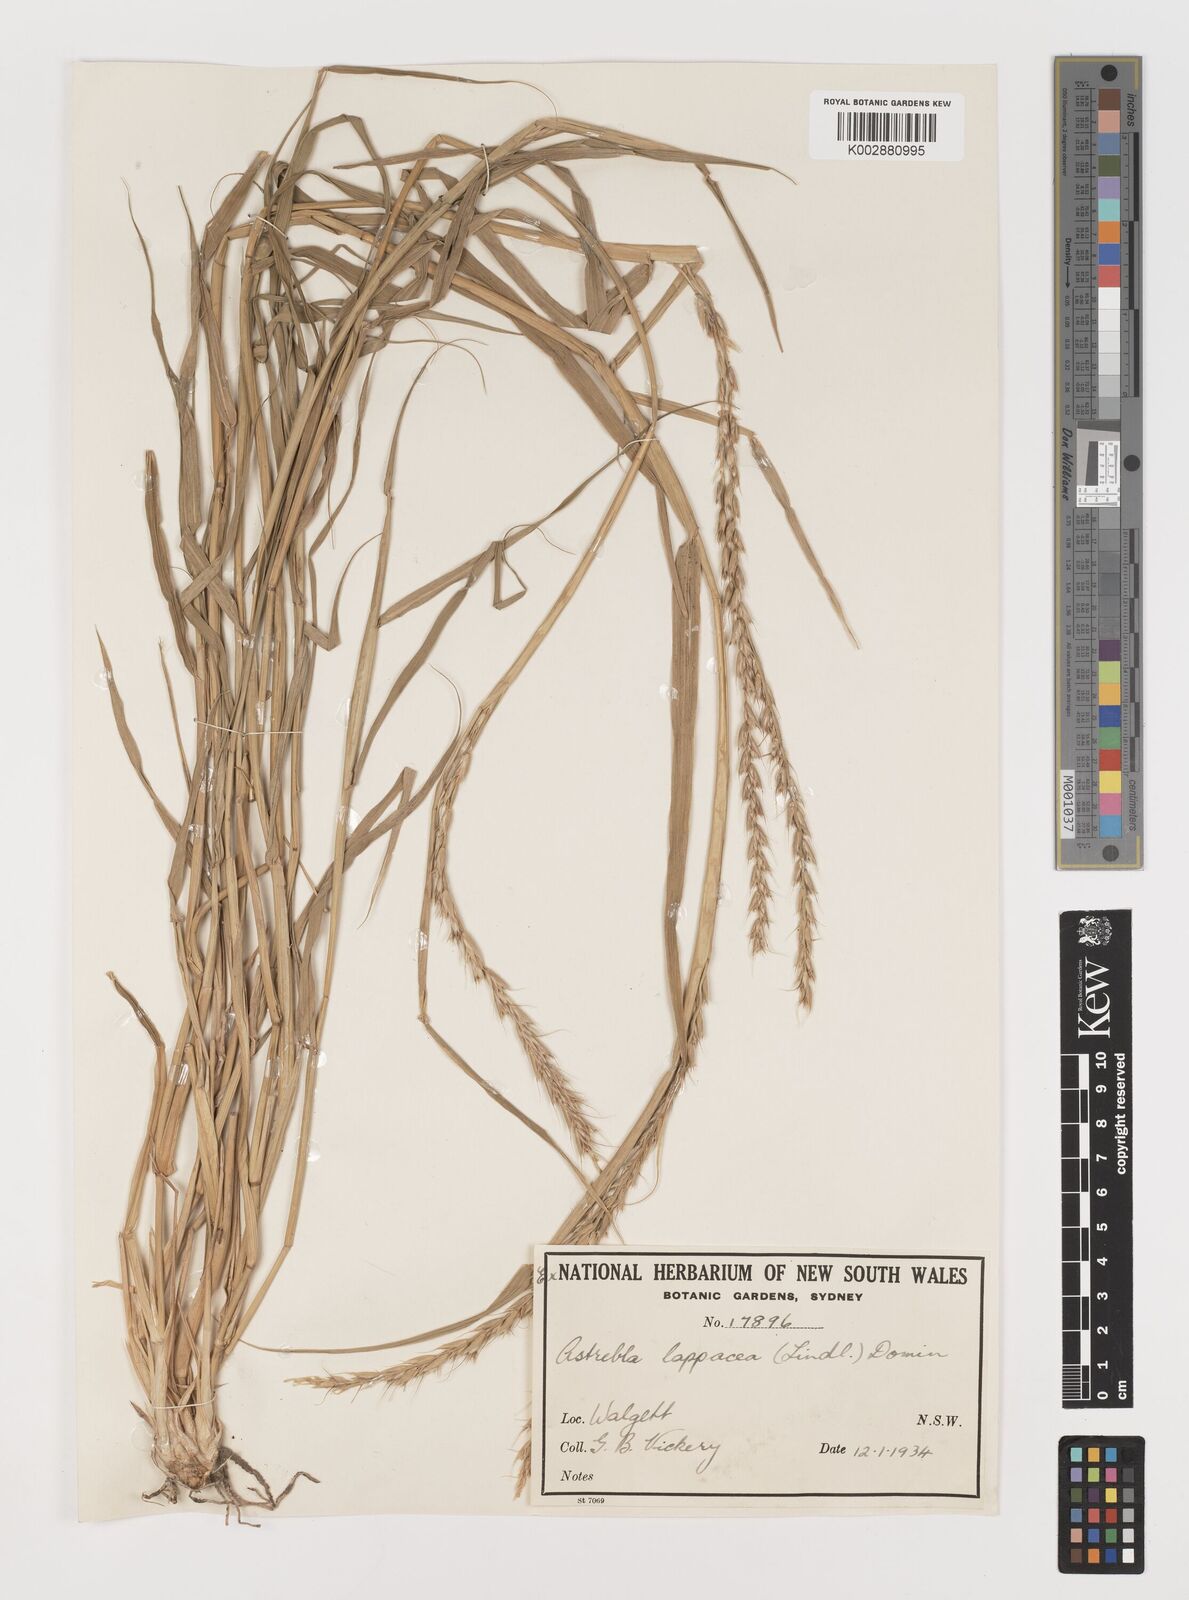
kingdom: Plantae
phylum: Tracheophyta
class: Liliopsida
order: Poales
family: Poaceae
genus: Astrebla
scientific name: Astrebla lappacea
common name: Curly mitchell grass
